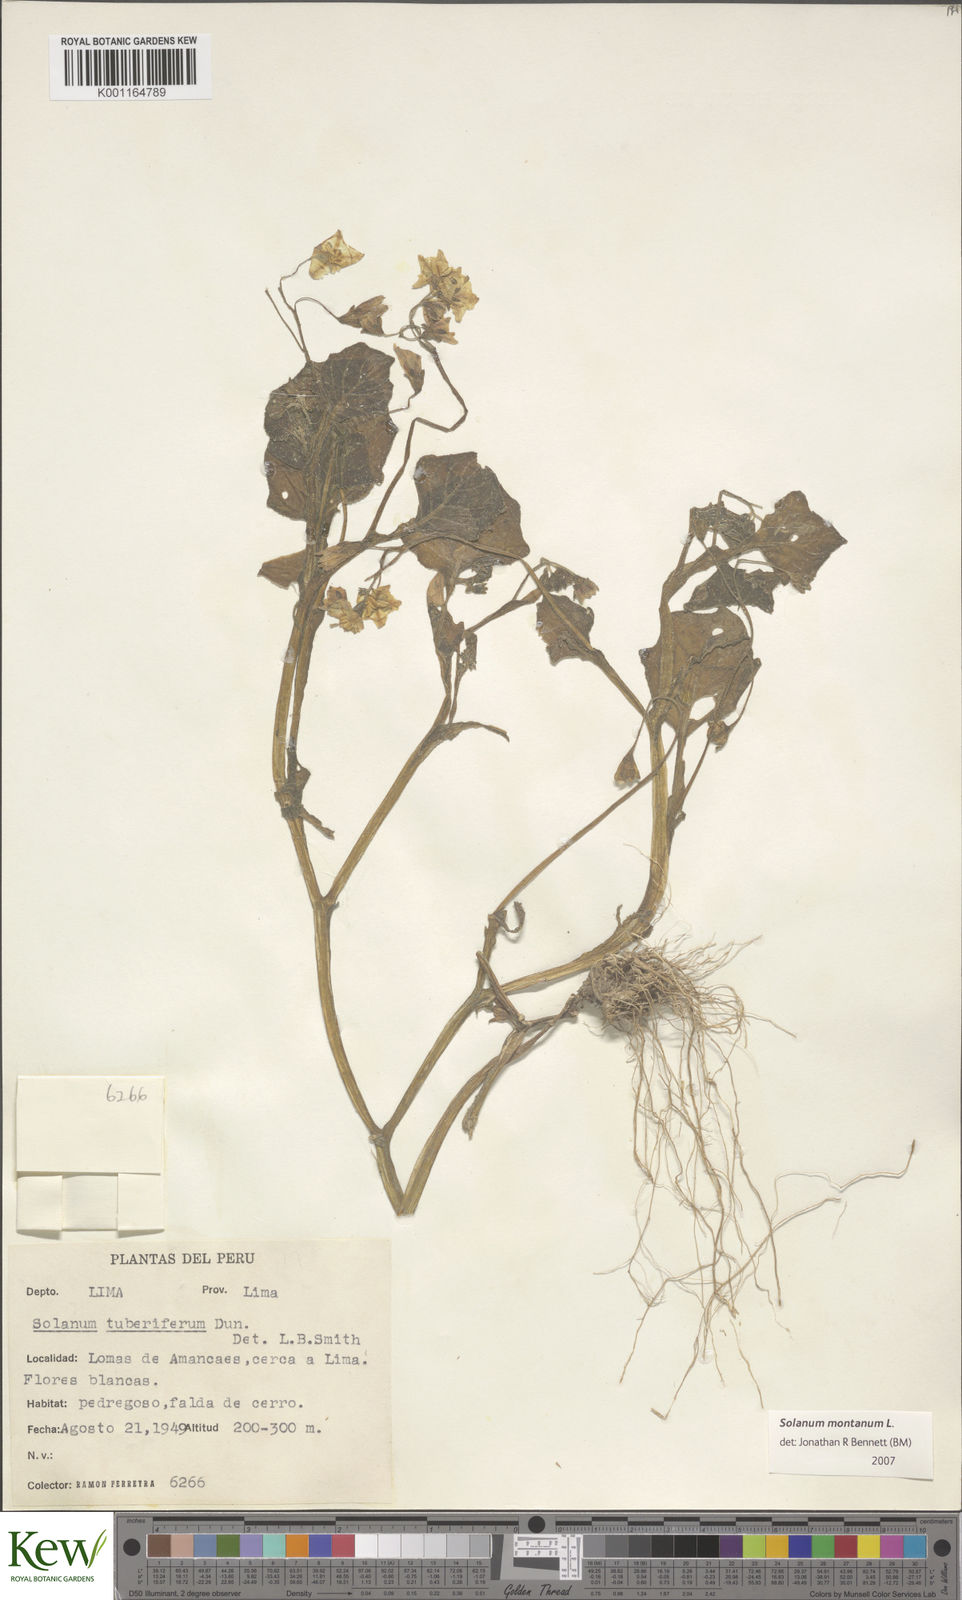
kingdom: Plantae
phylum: Tracheophyta
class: Magnoliopsida
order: Solanales
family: Solanaceae
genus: Solanum
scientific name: Solanum montanum
